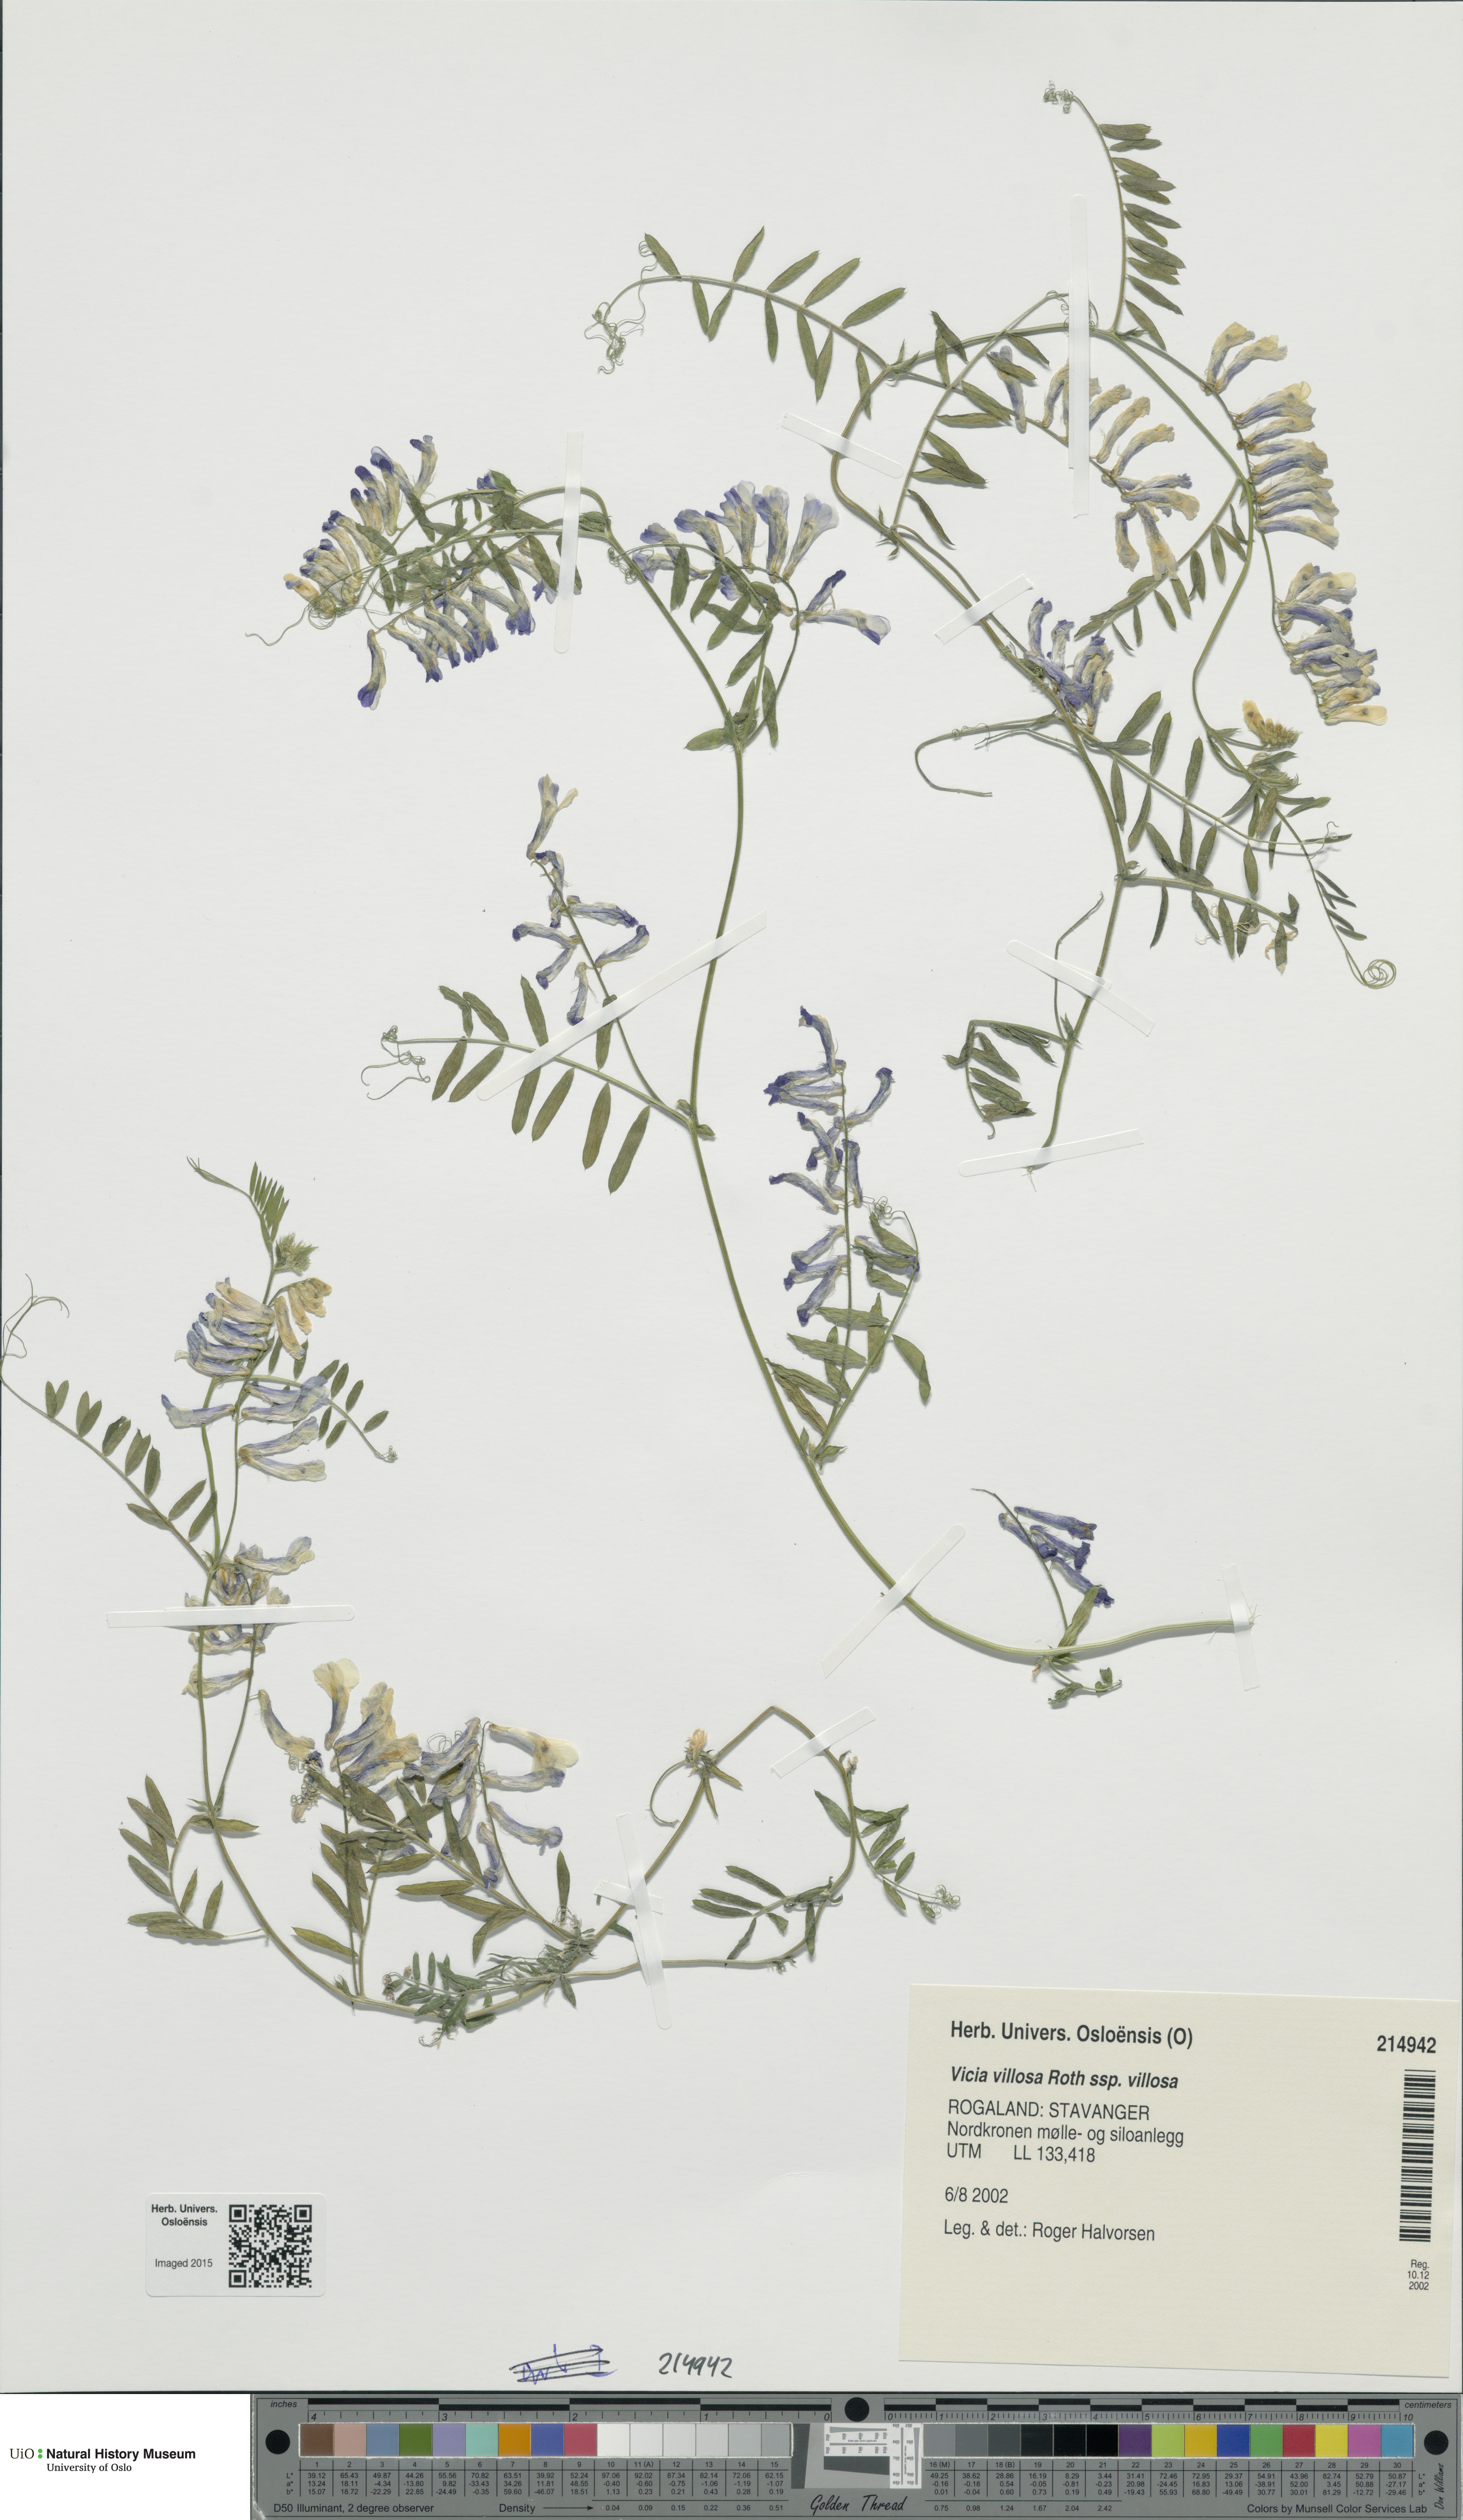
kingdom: Plantae
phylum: Tracheophyta
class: Magnoliopsida
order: Fabales
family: Fabaceae
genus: Vicia
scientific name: Vicia villosa
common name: Fodder vetch
